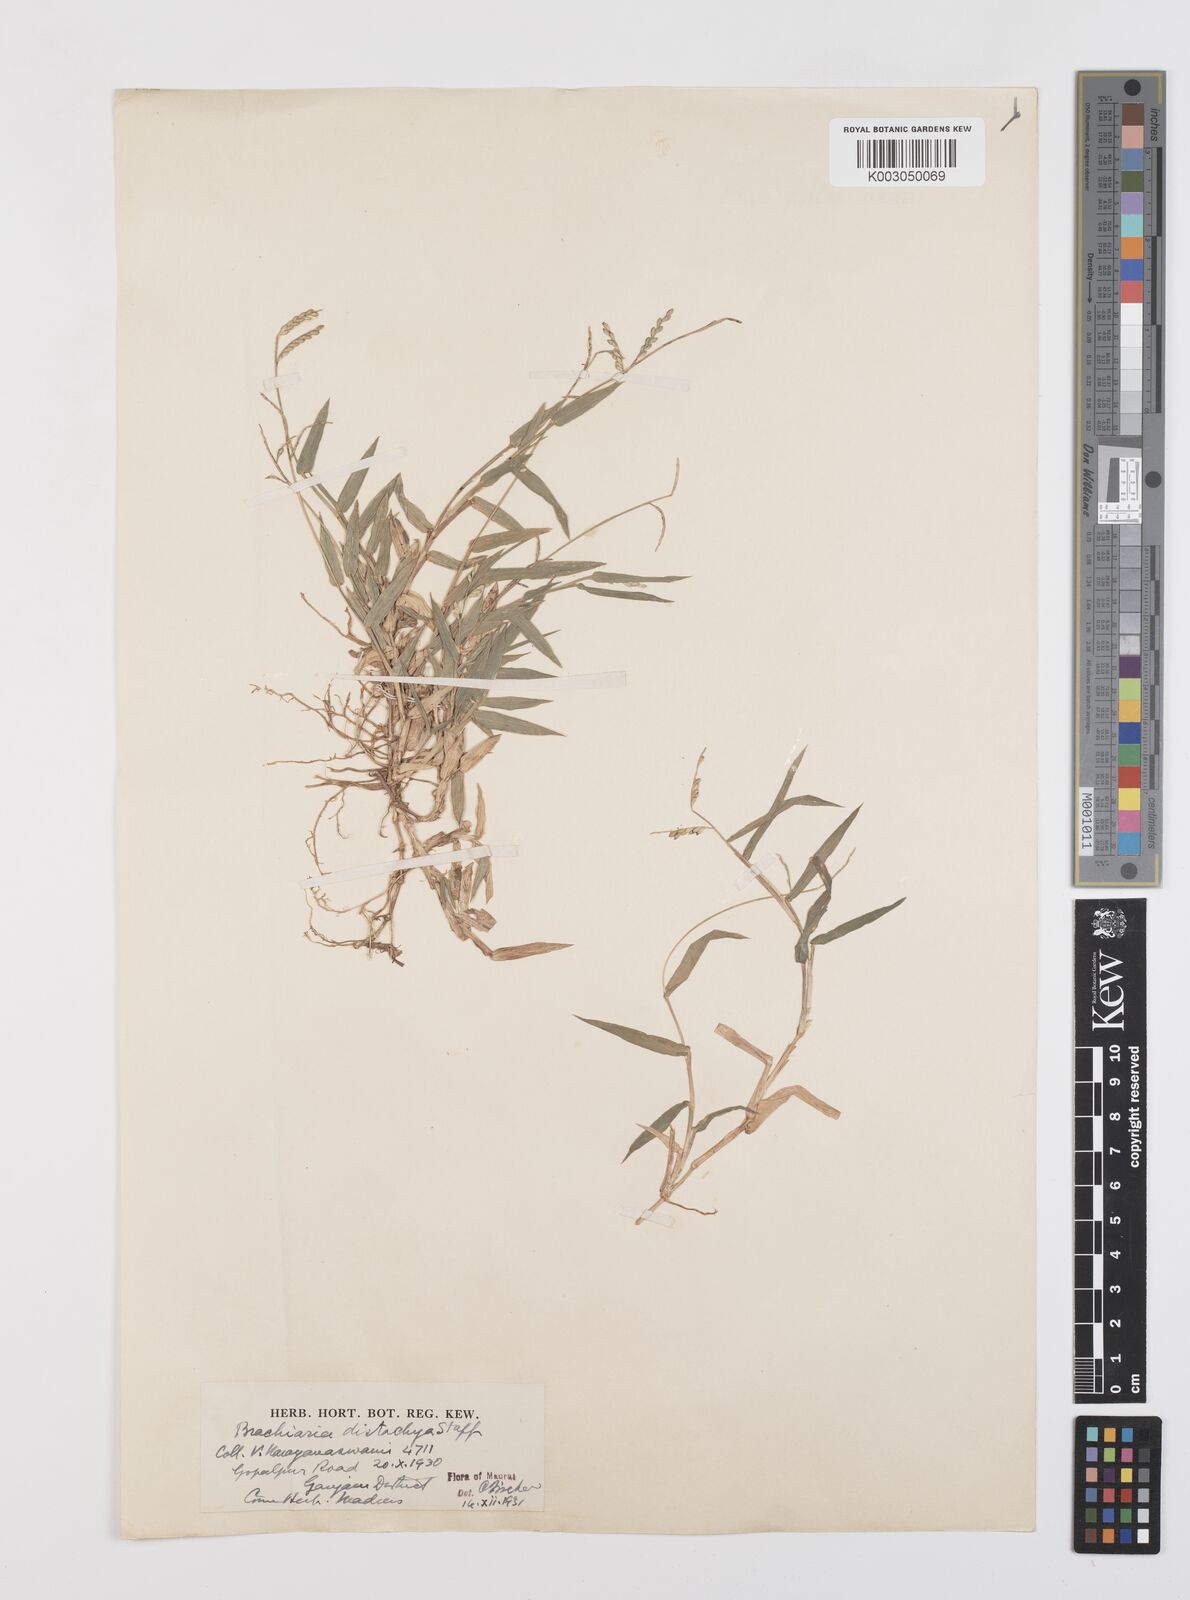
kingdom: Plantae
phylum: Tracheophyta
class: Liliopsida
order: Poales
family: Poaceae
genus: Urochloa
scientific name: Urochloa distachyos
